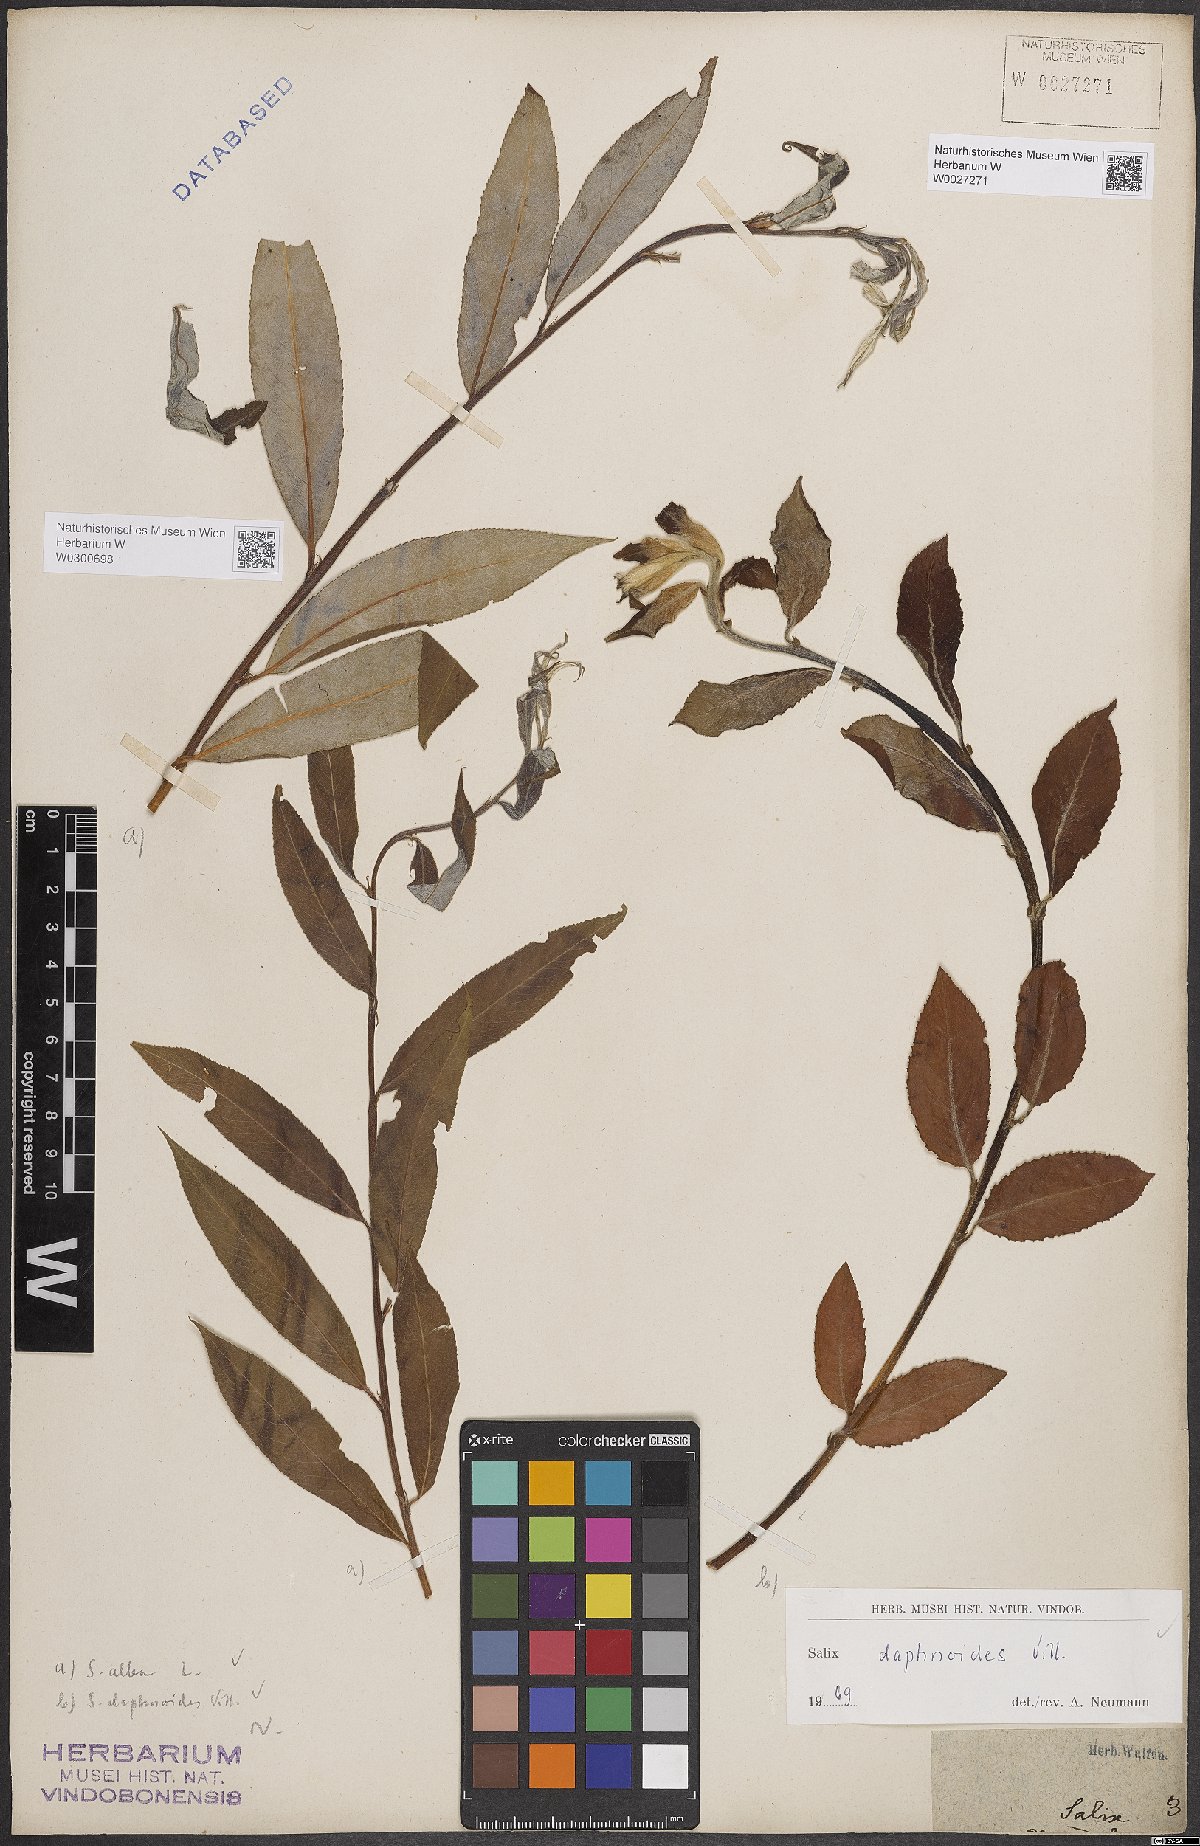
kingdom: Plantae
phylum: Tracheophyta
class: Magnoliopsida
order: Malpighiales
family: Salicaceae
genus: Salix
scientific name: Salix daphnoides
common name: European violet-willow
